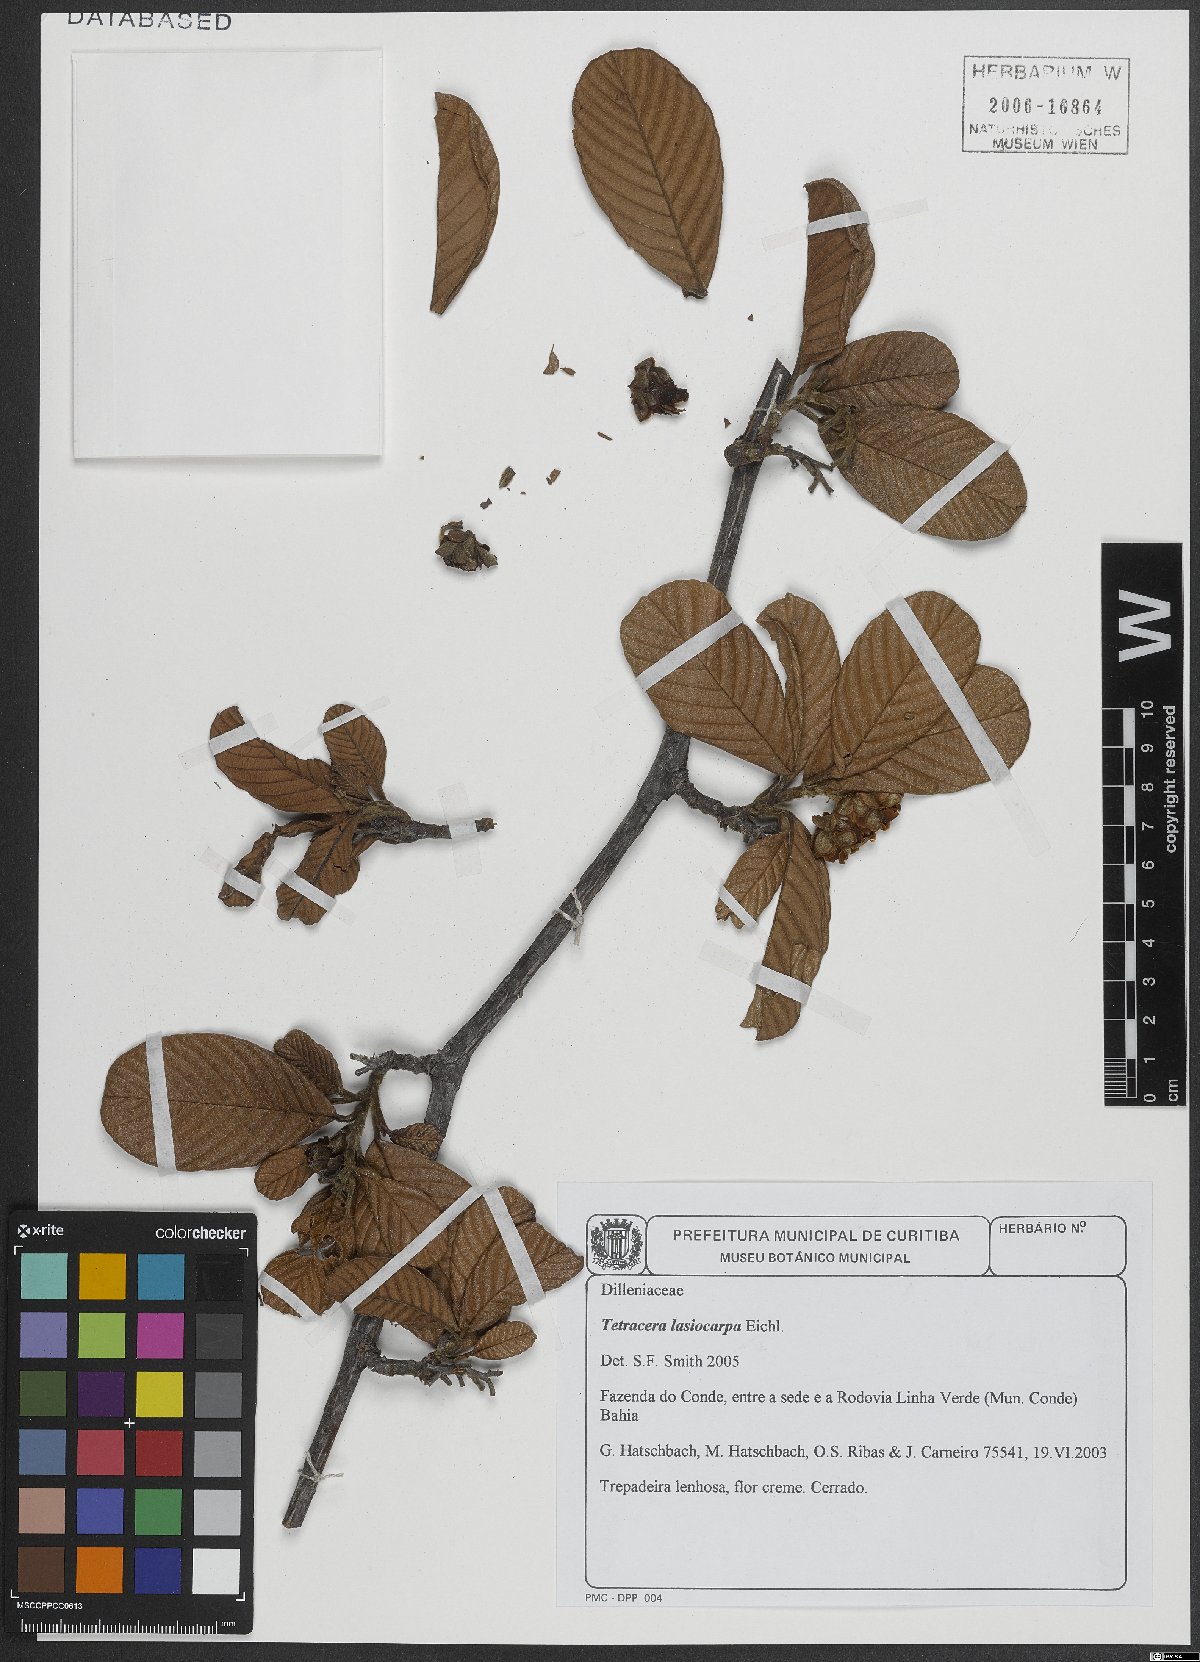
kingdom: Plantae
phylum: Tracheophyta
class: Magnoliopsida
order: Dilleniales
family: Dilleniaceae
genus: Tetracera
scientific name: Tetracera lasiocarpa
